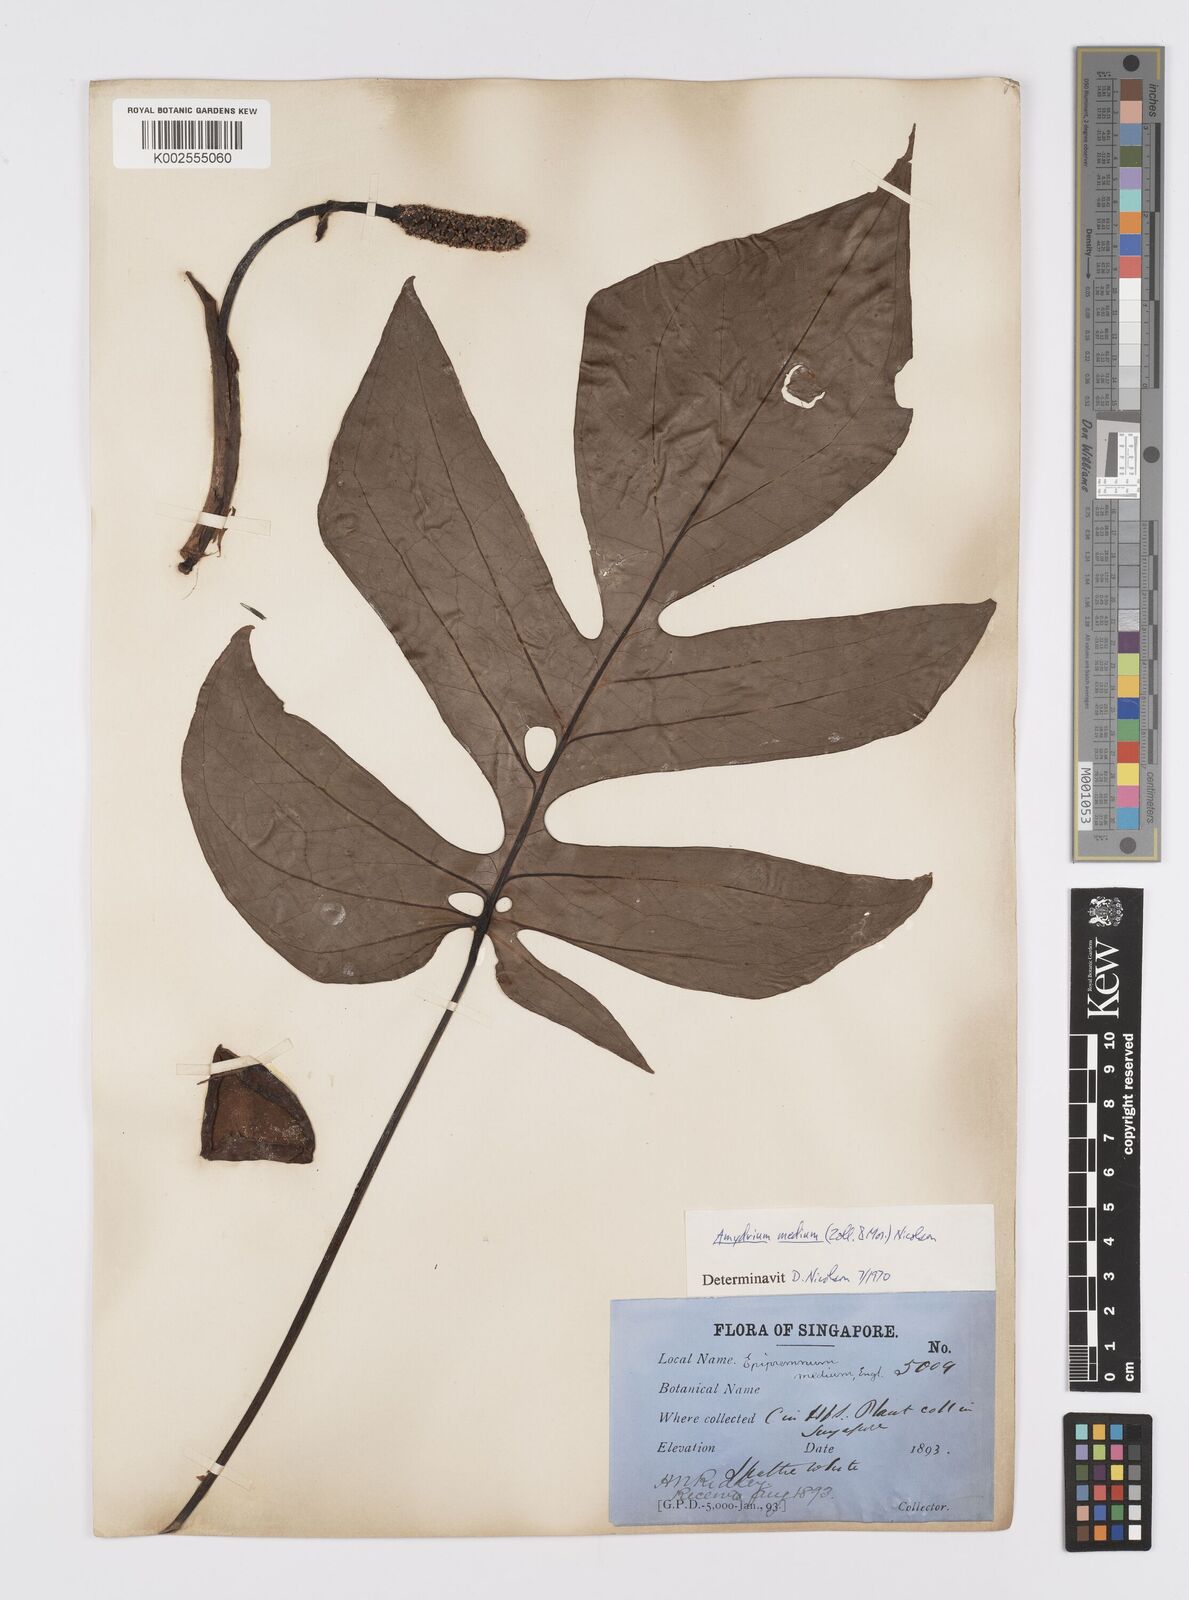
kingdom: Plantae
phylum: Tracheophyta
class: Liliopsida
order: Alismatales
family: Araceae
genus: Amydrium
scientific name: Amydrium medium
